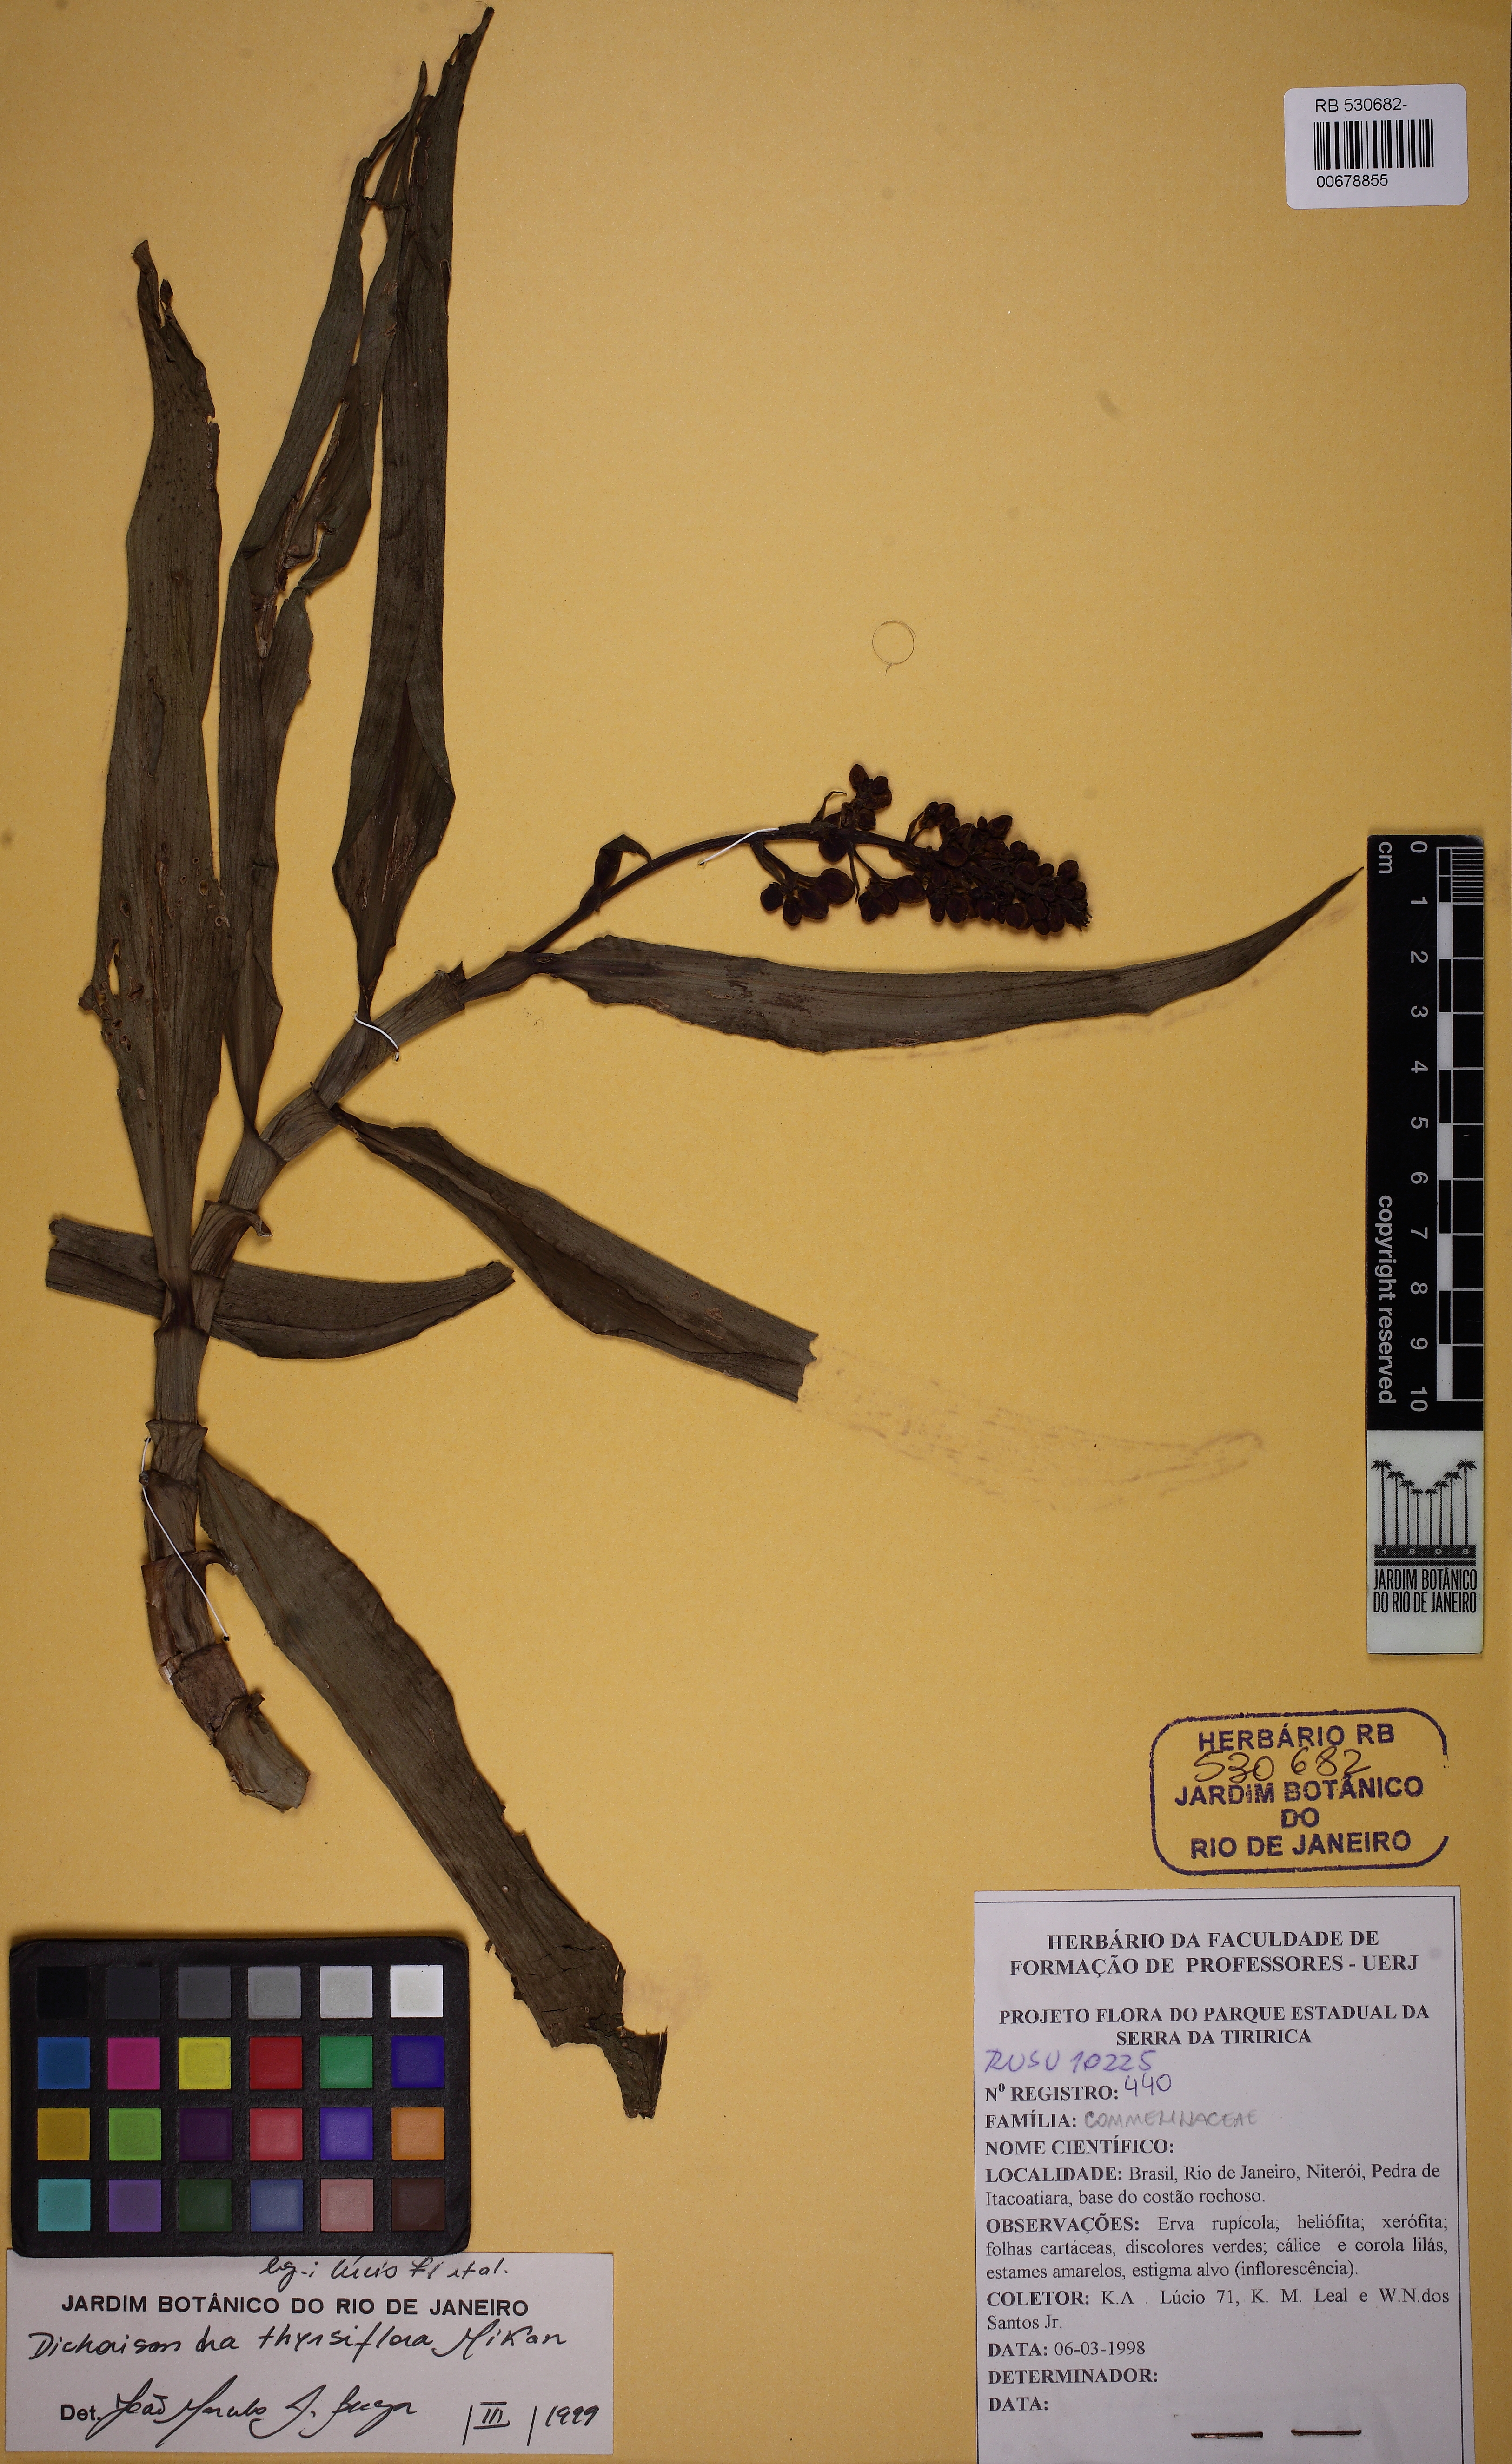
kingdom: Plantae
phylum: Tracheophyta
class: Liliopsida
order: Commelinales
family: Commelinaceae
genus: Dichorisandra
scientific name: Dichorisandra thyrsiflora
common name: Blue-ginger
